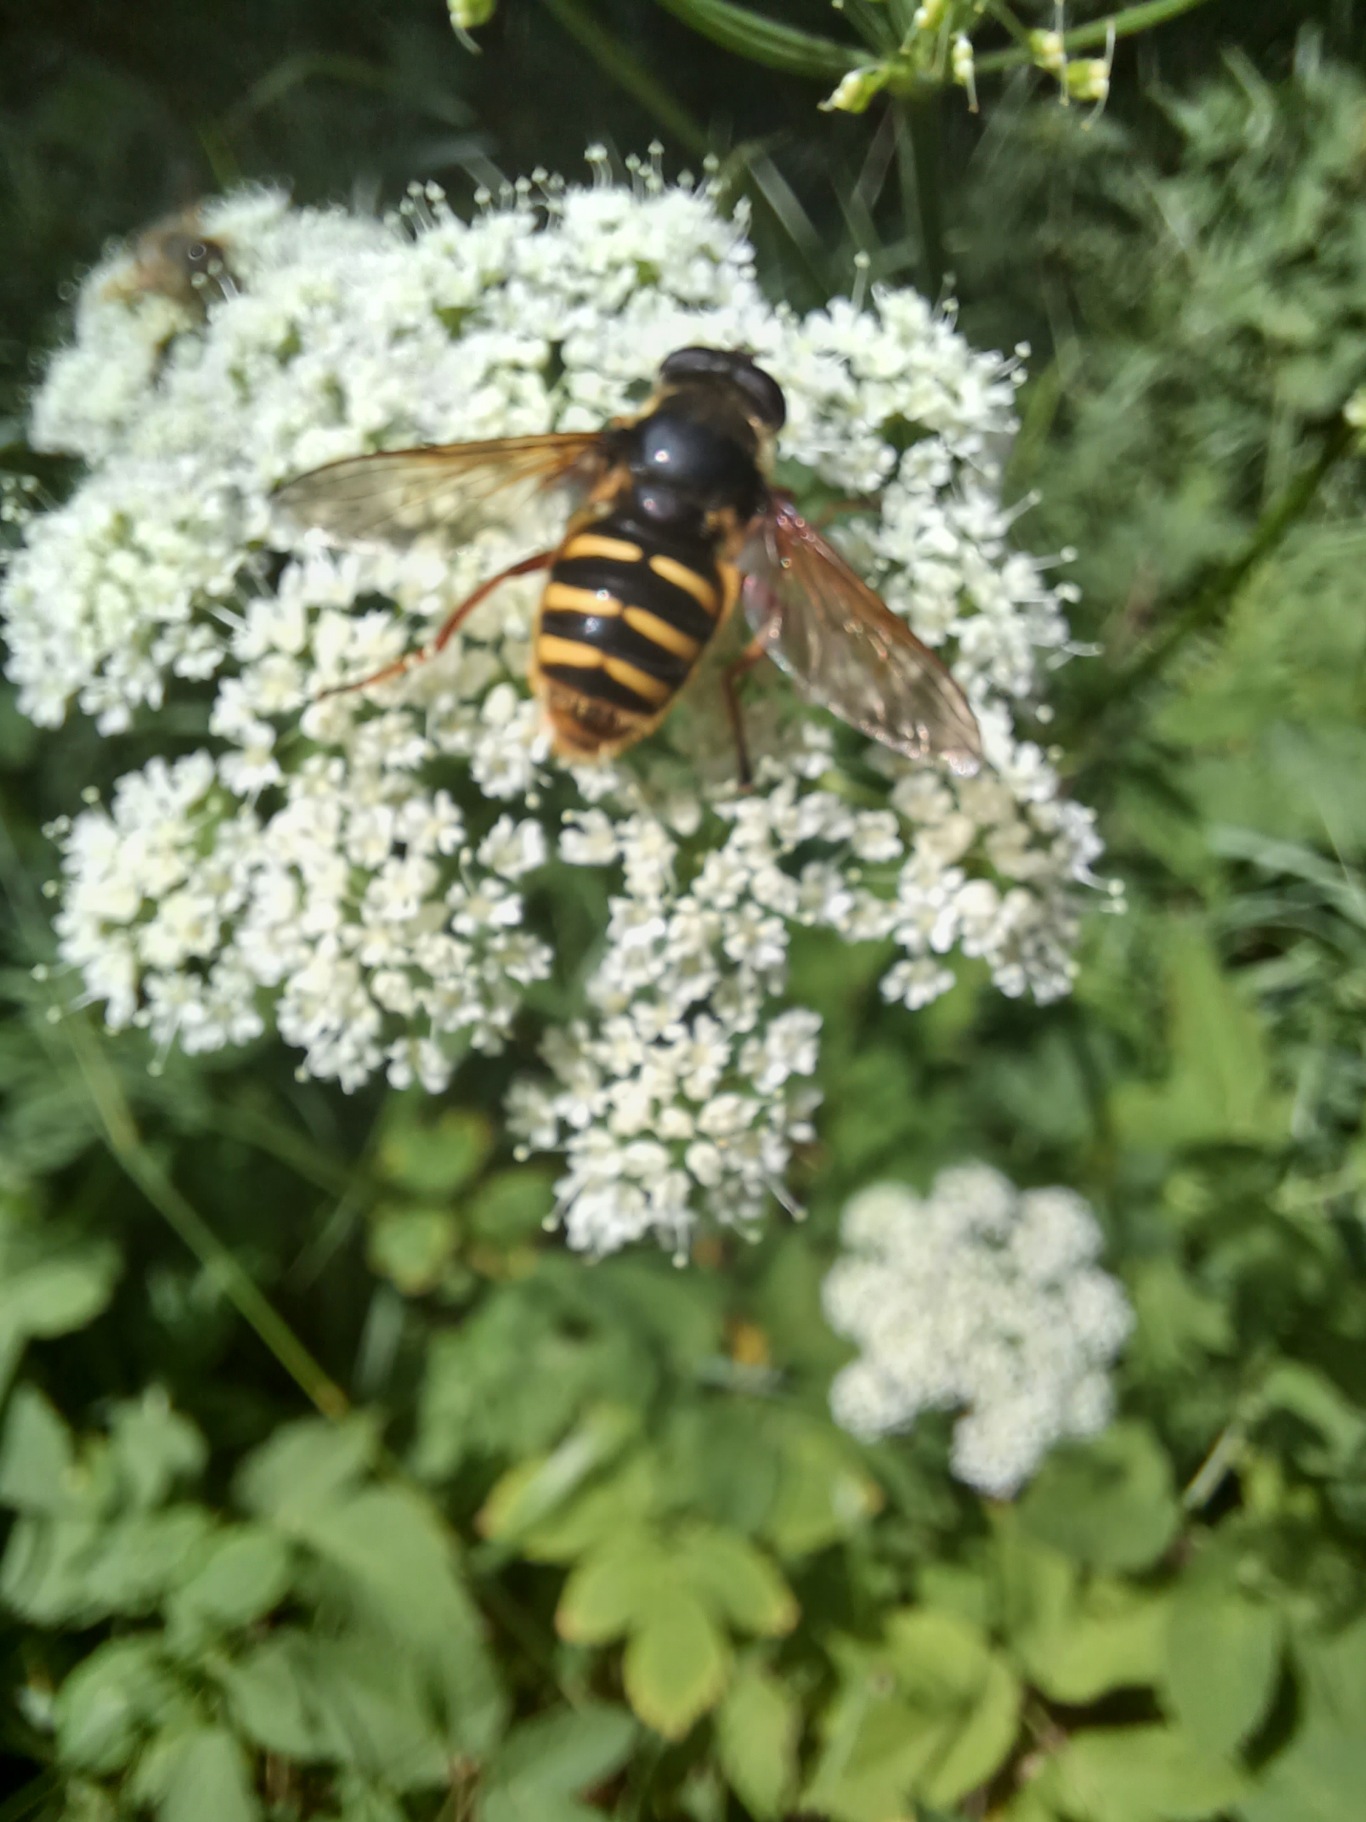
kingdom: Animalia
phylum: Arthropoda
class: Insecta
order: Diptera
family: Syrphidae
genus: Sericomyia
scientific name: Sericomyia silentis
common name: Tørve-silkesvirreflue
